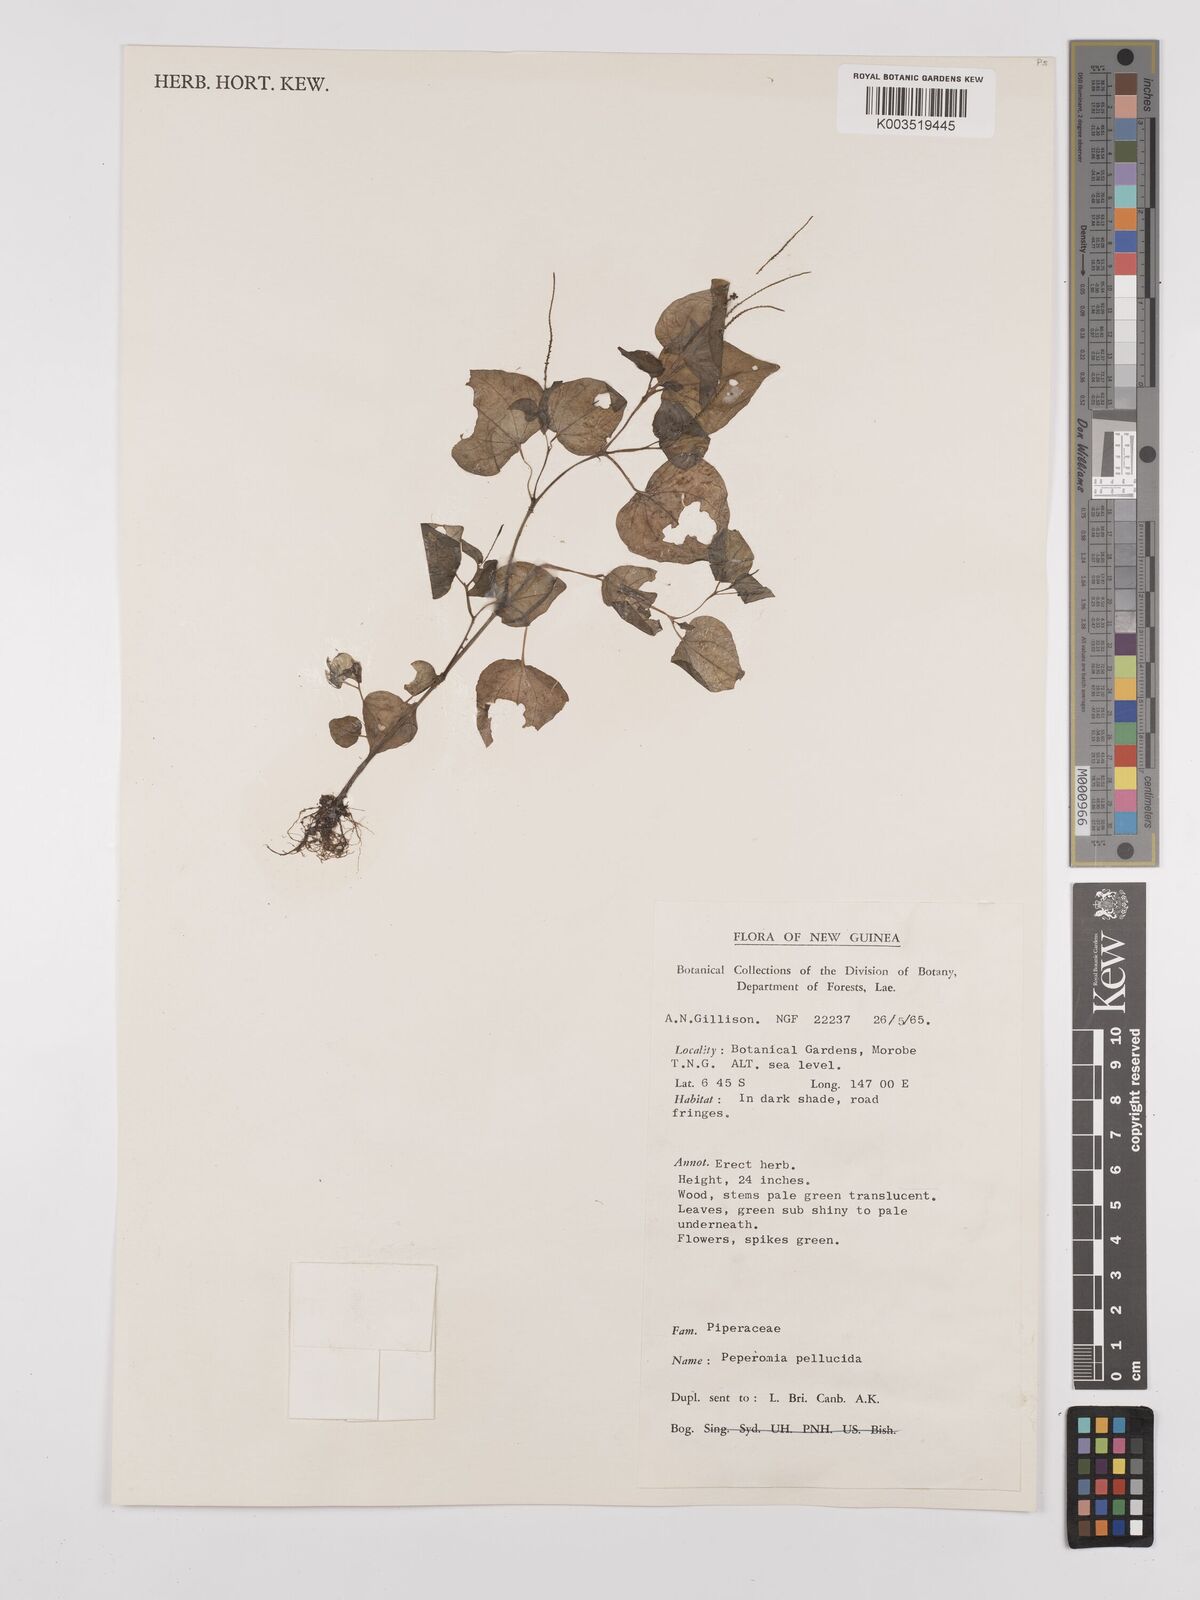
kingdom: Plantae
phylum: Tracheophyta
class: Magnoliopsida
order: Piperales
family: Piperaceae
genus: Peperomia
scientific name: Peperomia pellucida
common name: Man to man
